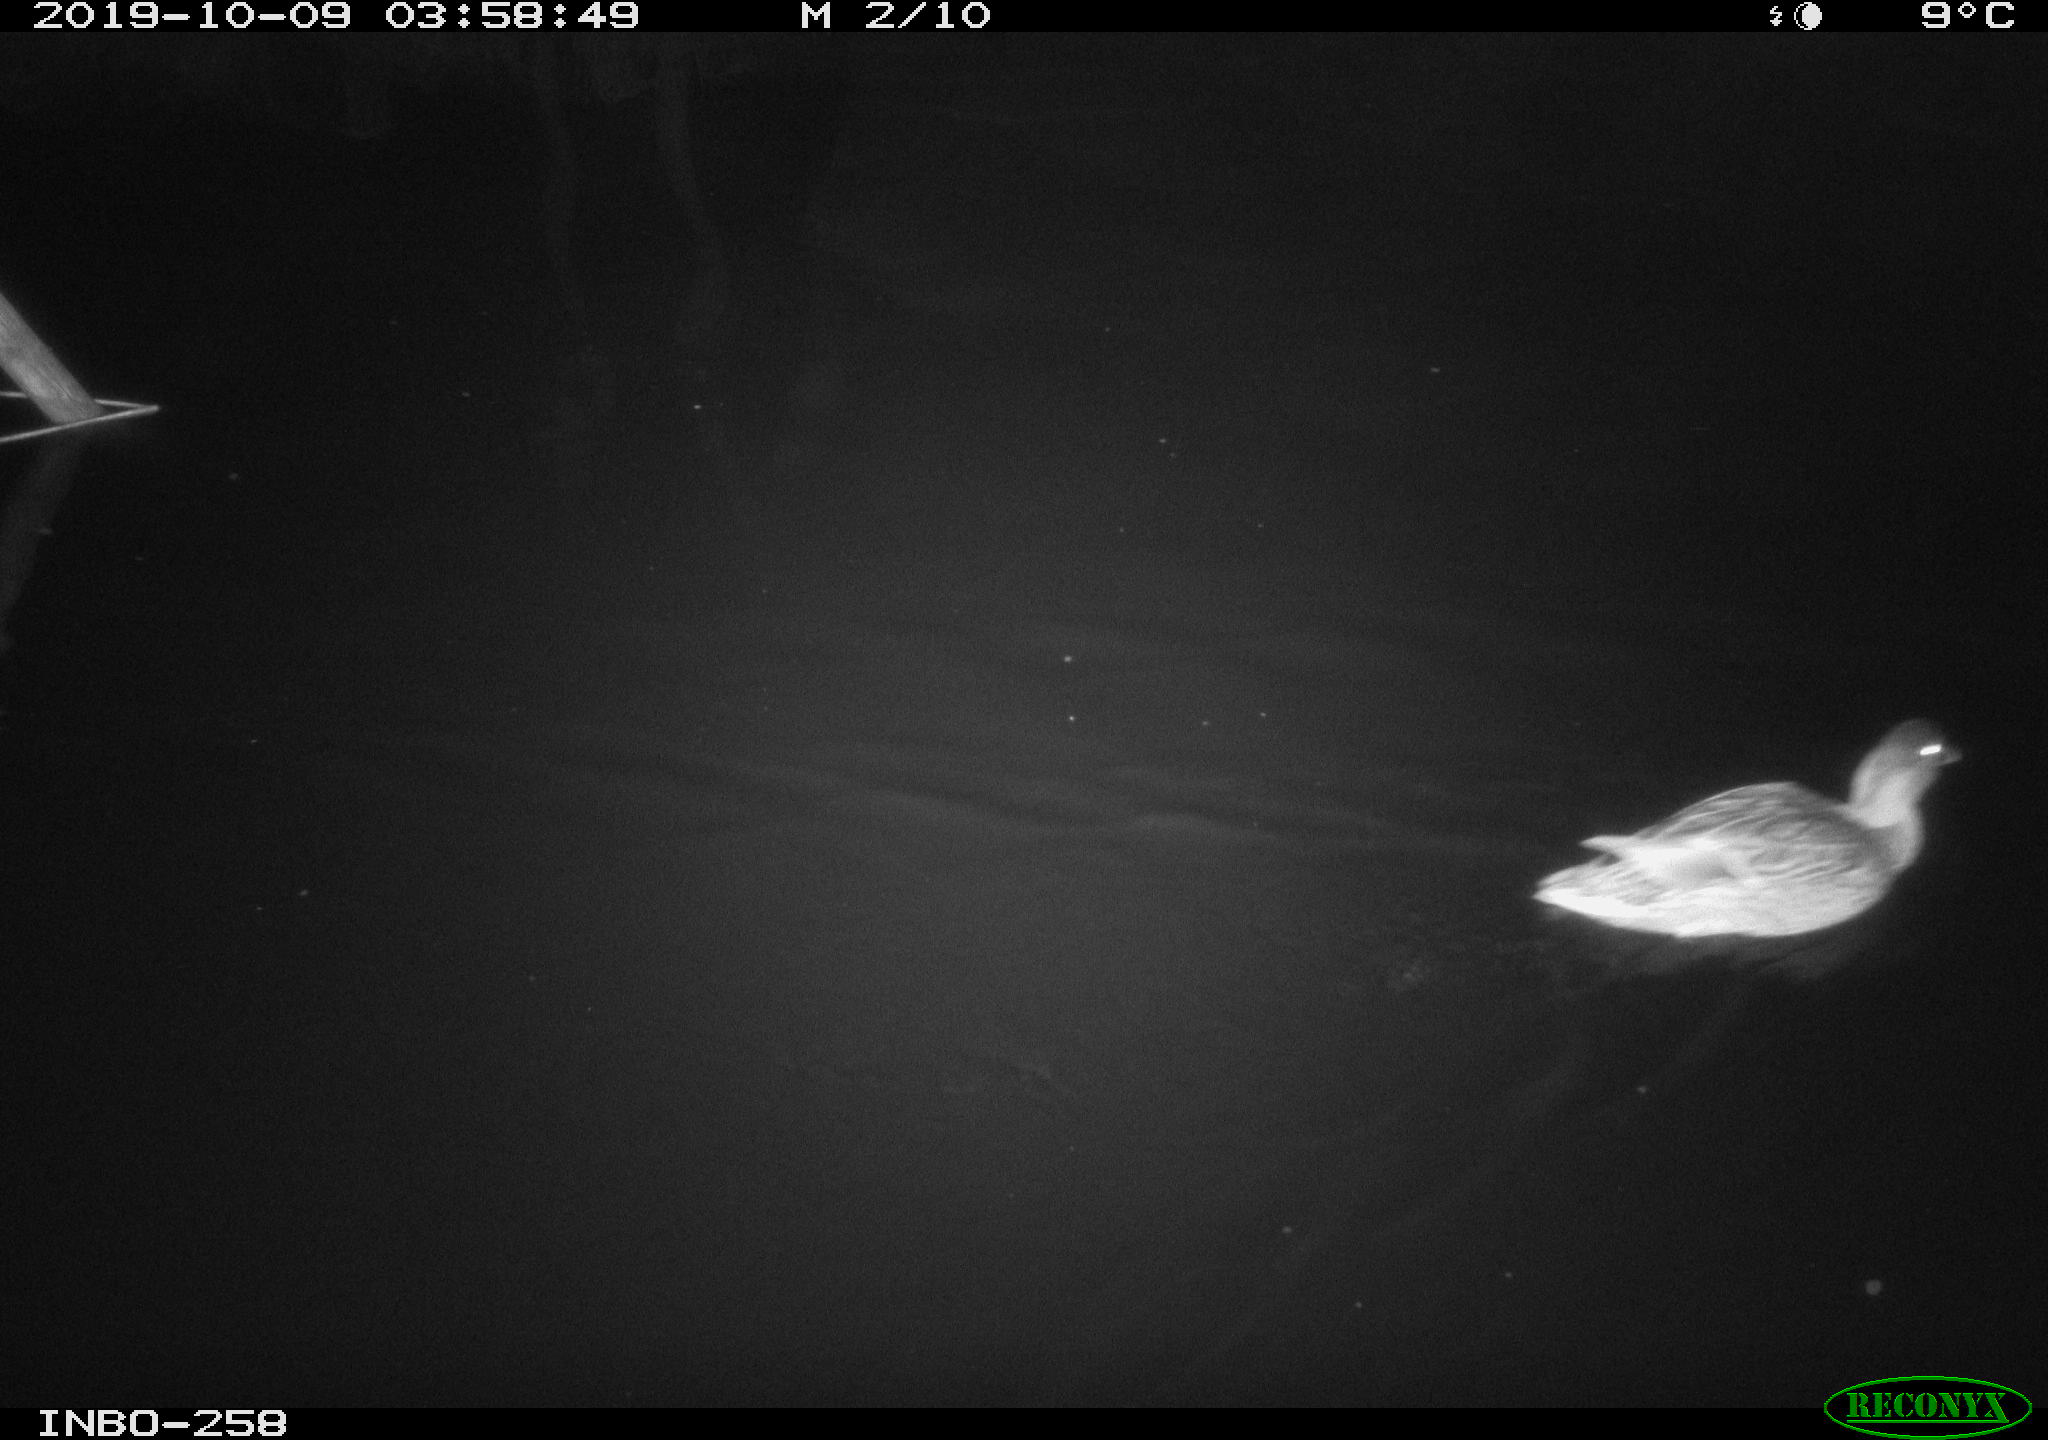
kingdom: Animalia
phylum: Chordata
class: Aves
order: Anseriformes
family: Anatidae
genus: Anas
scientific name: Anas platyrhynchos
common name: Mallard
